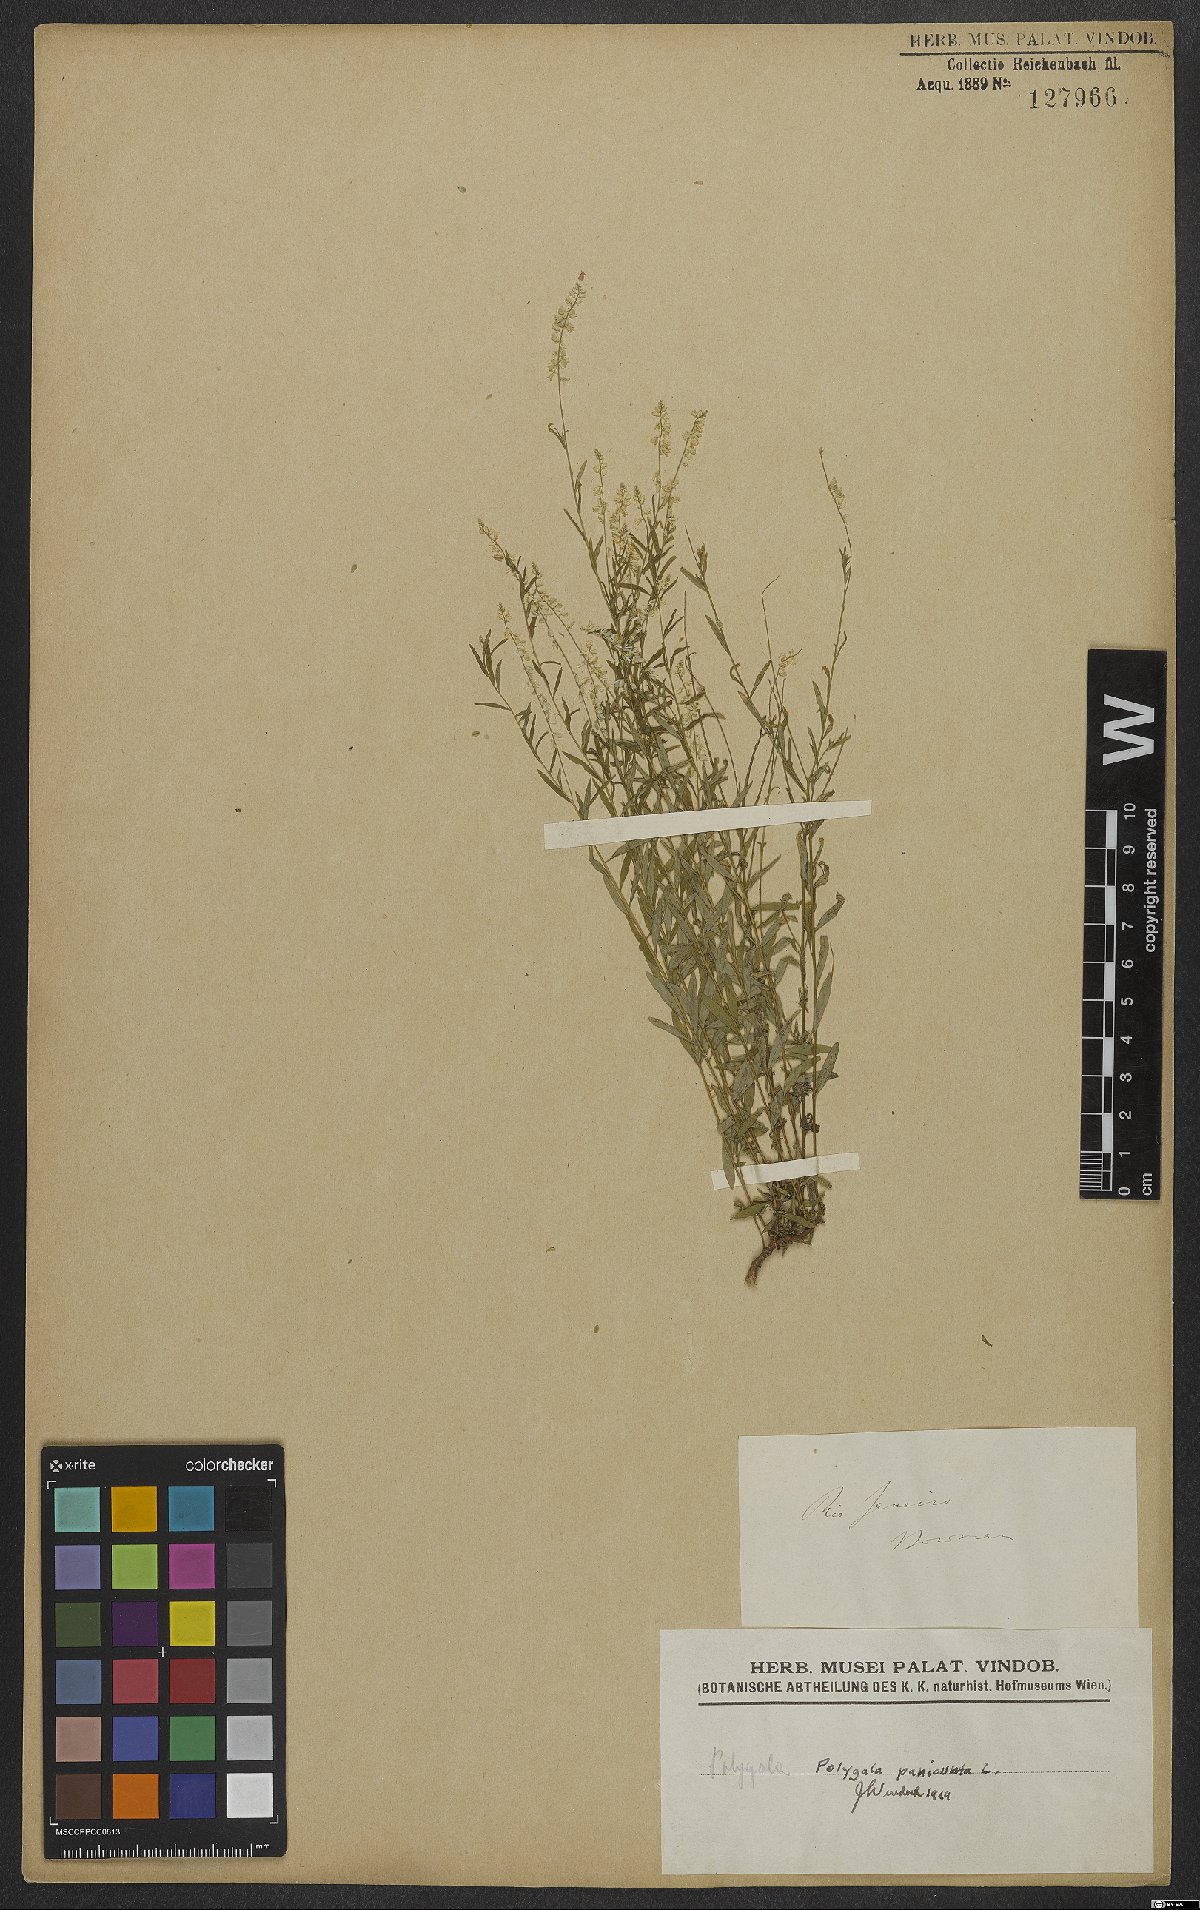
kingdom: Plantae
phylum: Tracheophyta
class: Magnoliopsida
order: Fabales
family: Polygalaceae
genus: Polygala
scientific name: Polygala exilis
